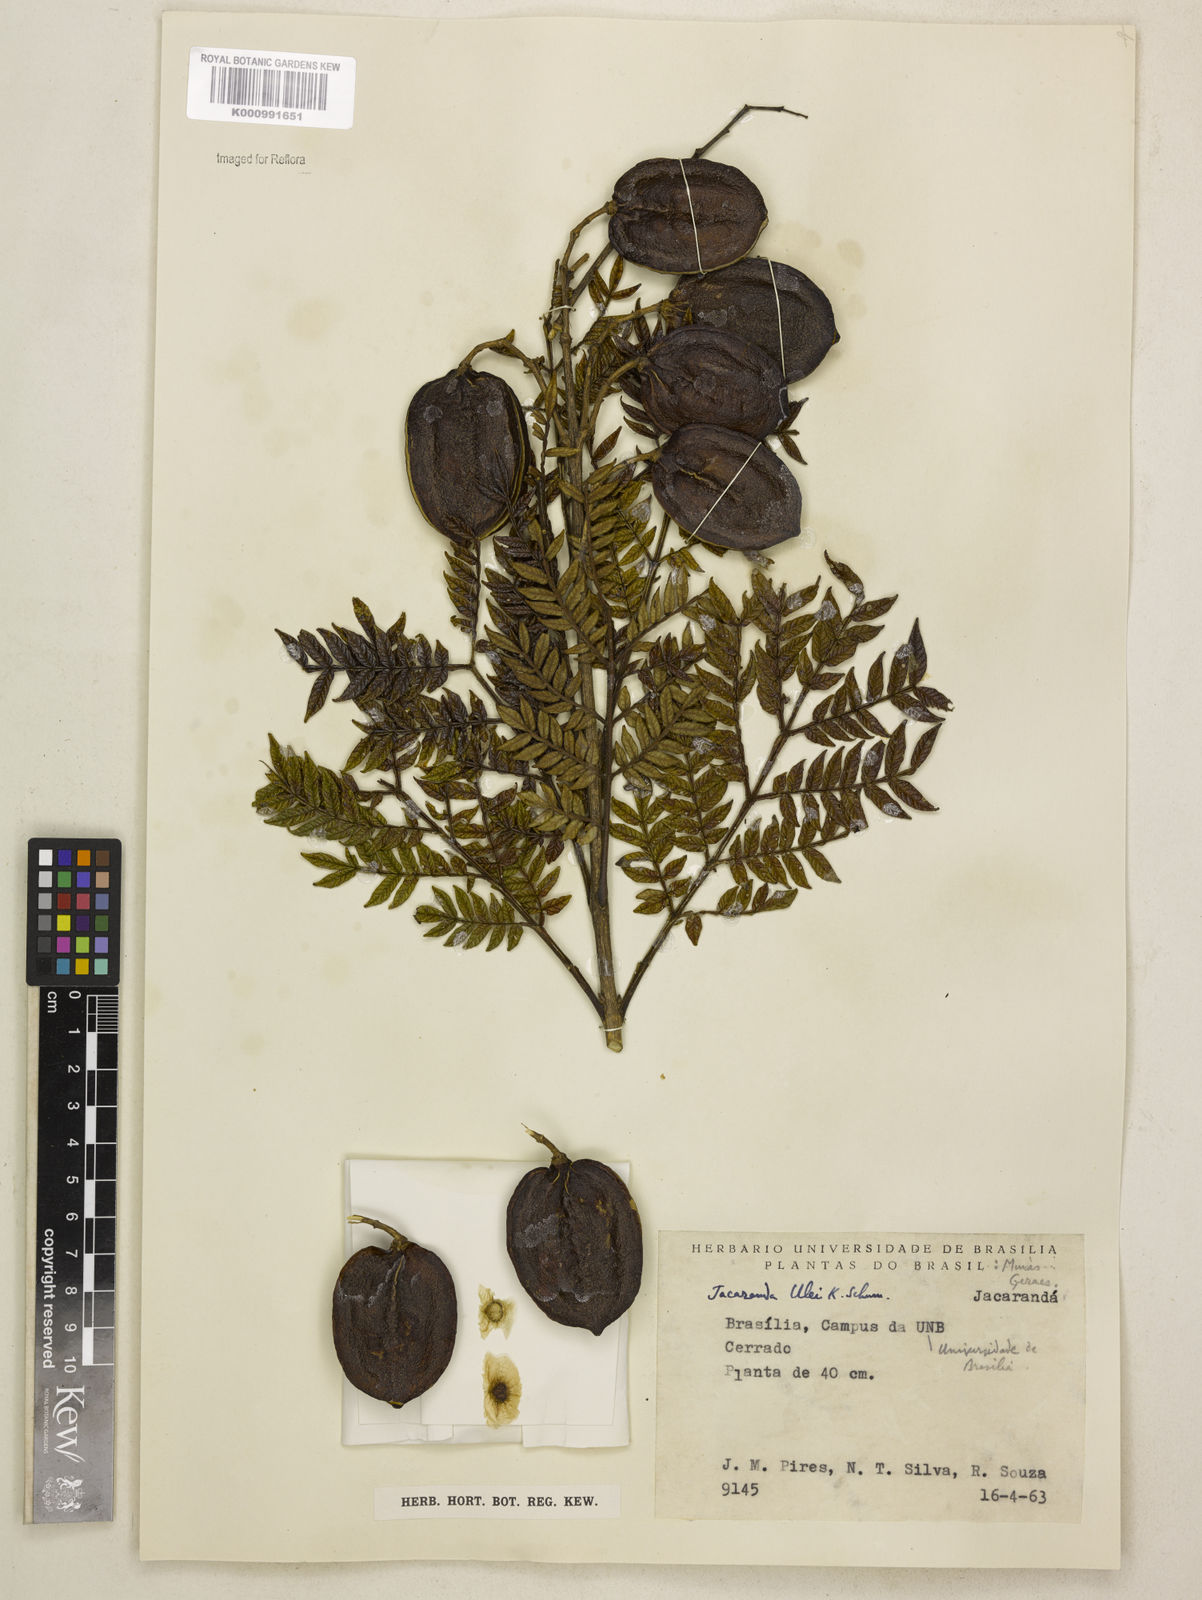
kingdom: Plantae
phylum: Tracheophyta
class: Magnoliopsida
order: Lamiales
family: Bignoniaceae
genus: Jacaranda
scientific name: Jacaranda ulei
